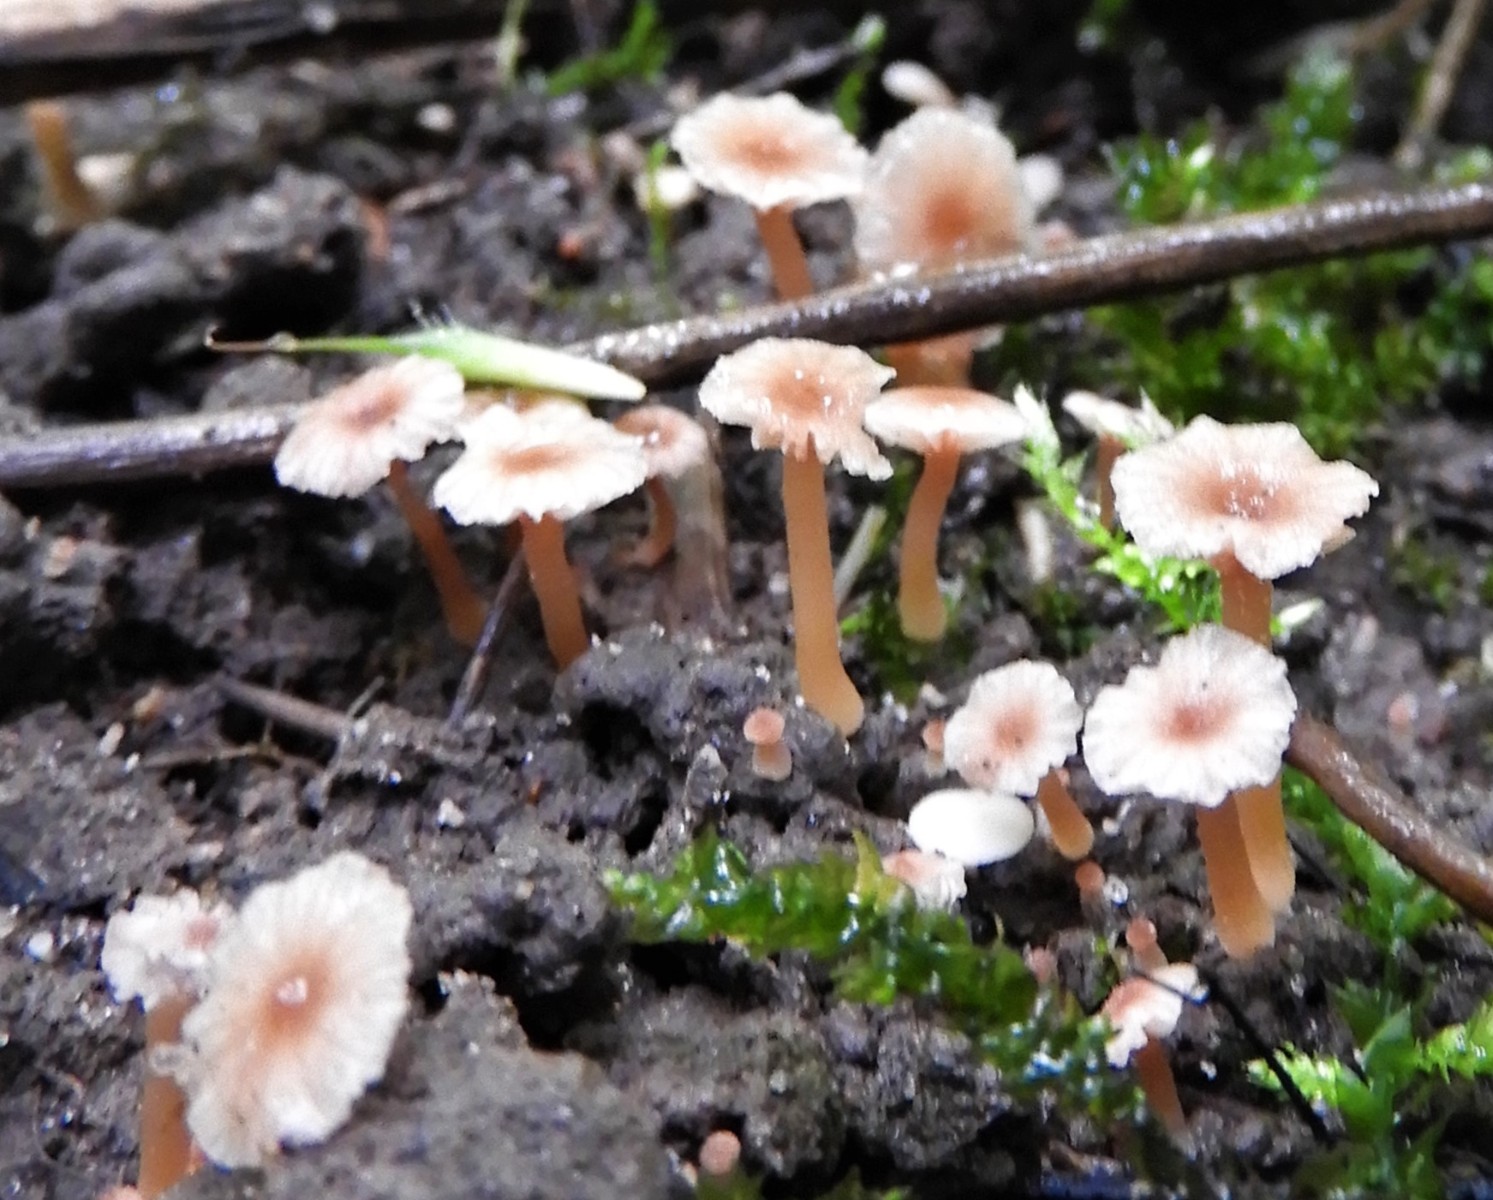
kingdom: Fungi
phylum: Basidiomycota
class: Agaricomycetes
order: Agaricales
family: Hydnangiaceae
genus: Laccaria
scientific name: Laccaria tortilis
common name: krybende ametysthat
